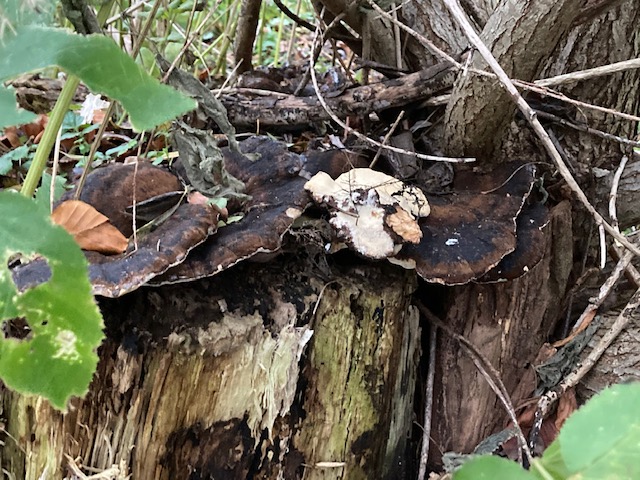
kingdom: Fungi
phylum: Basidiomycota
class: Agaricomycetes
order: Polyporales
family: Ischnodermataceae
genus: Ischnoderma
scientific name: Ischnoderma resinosum
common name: løv-tjæreporesvamp
